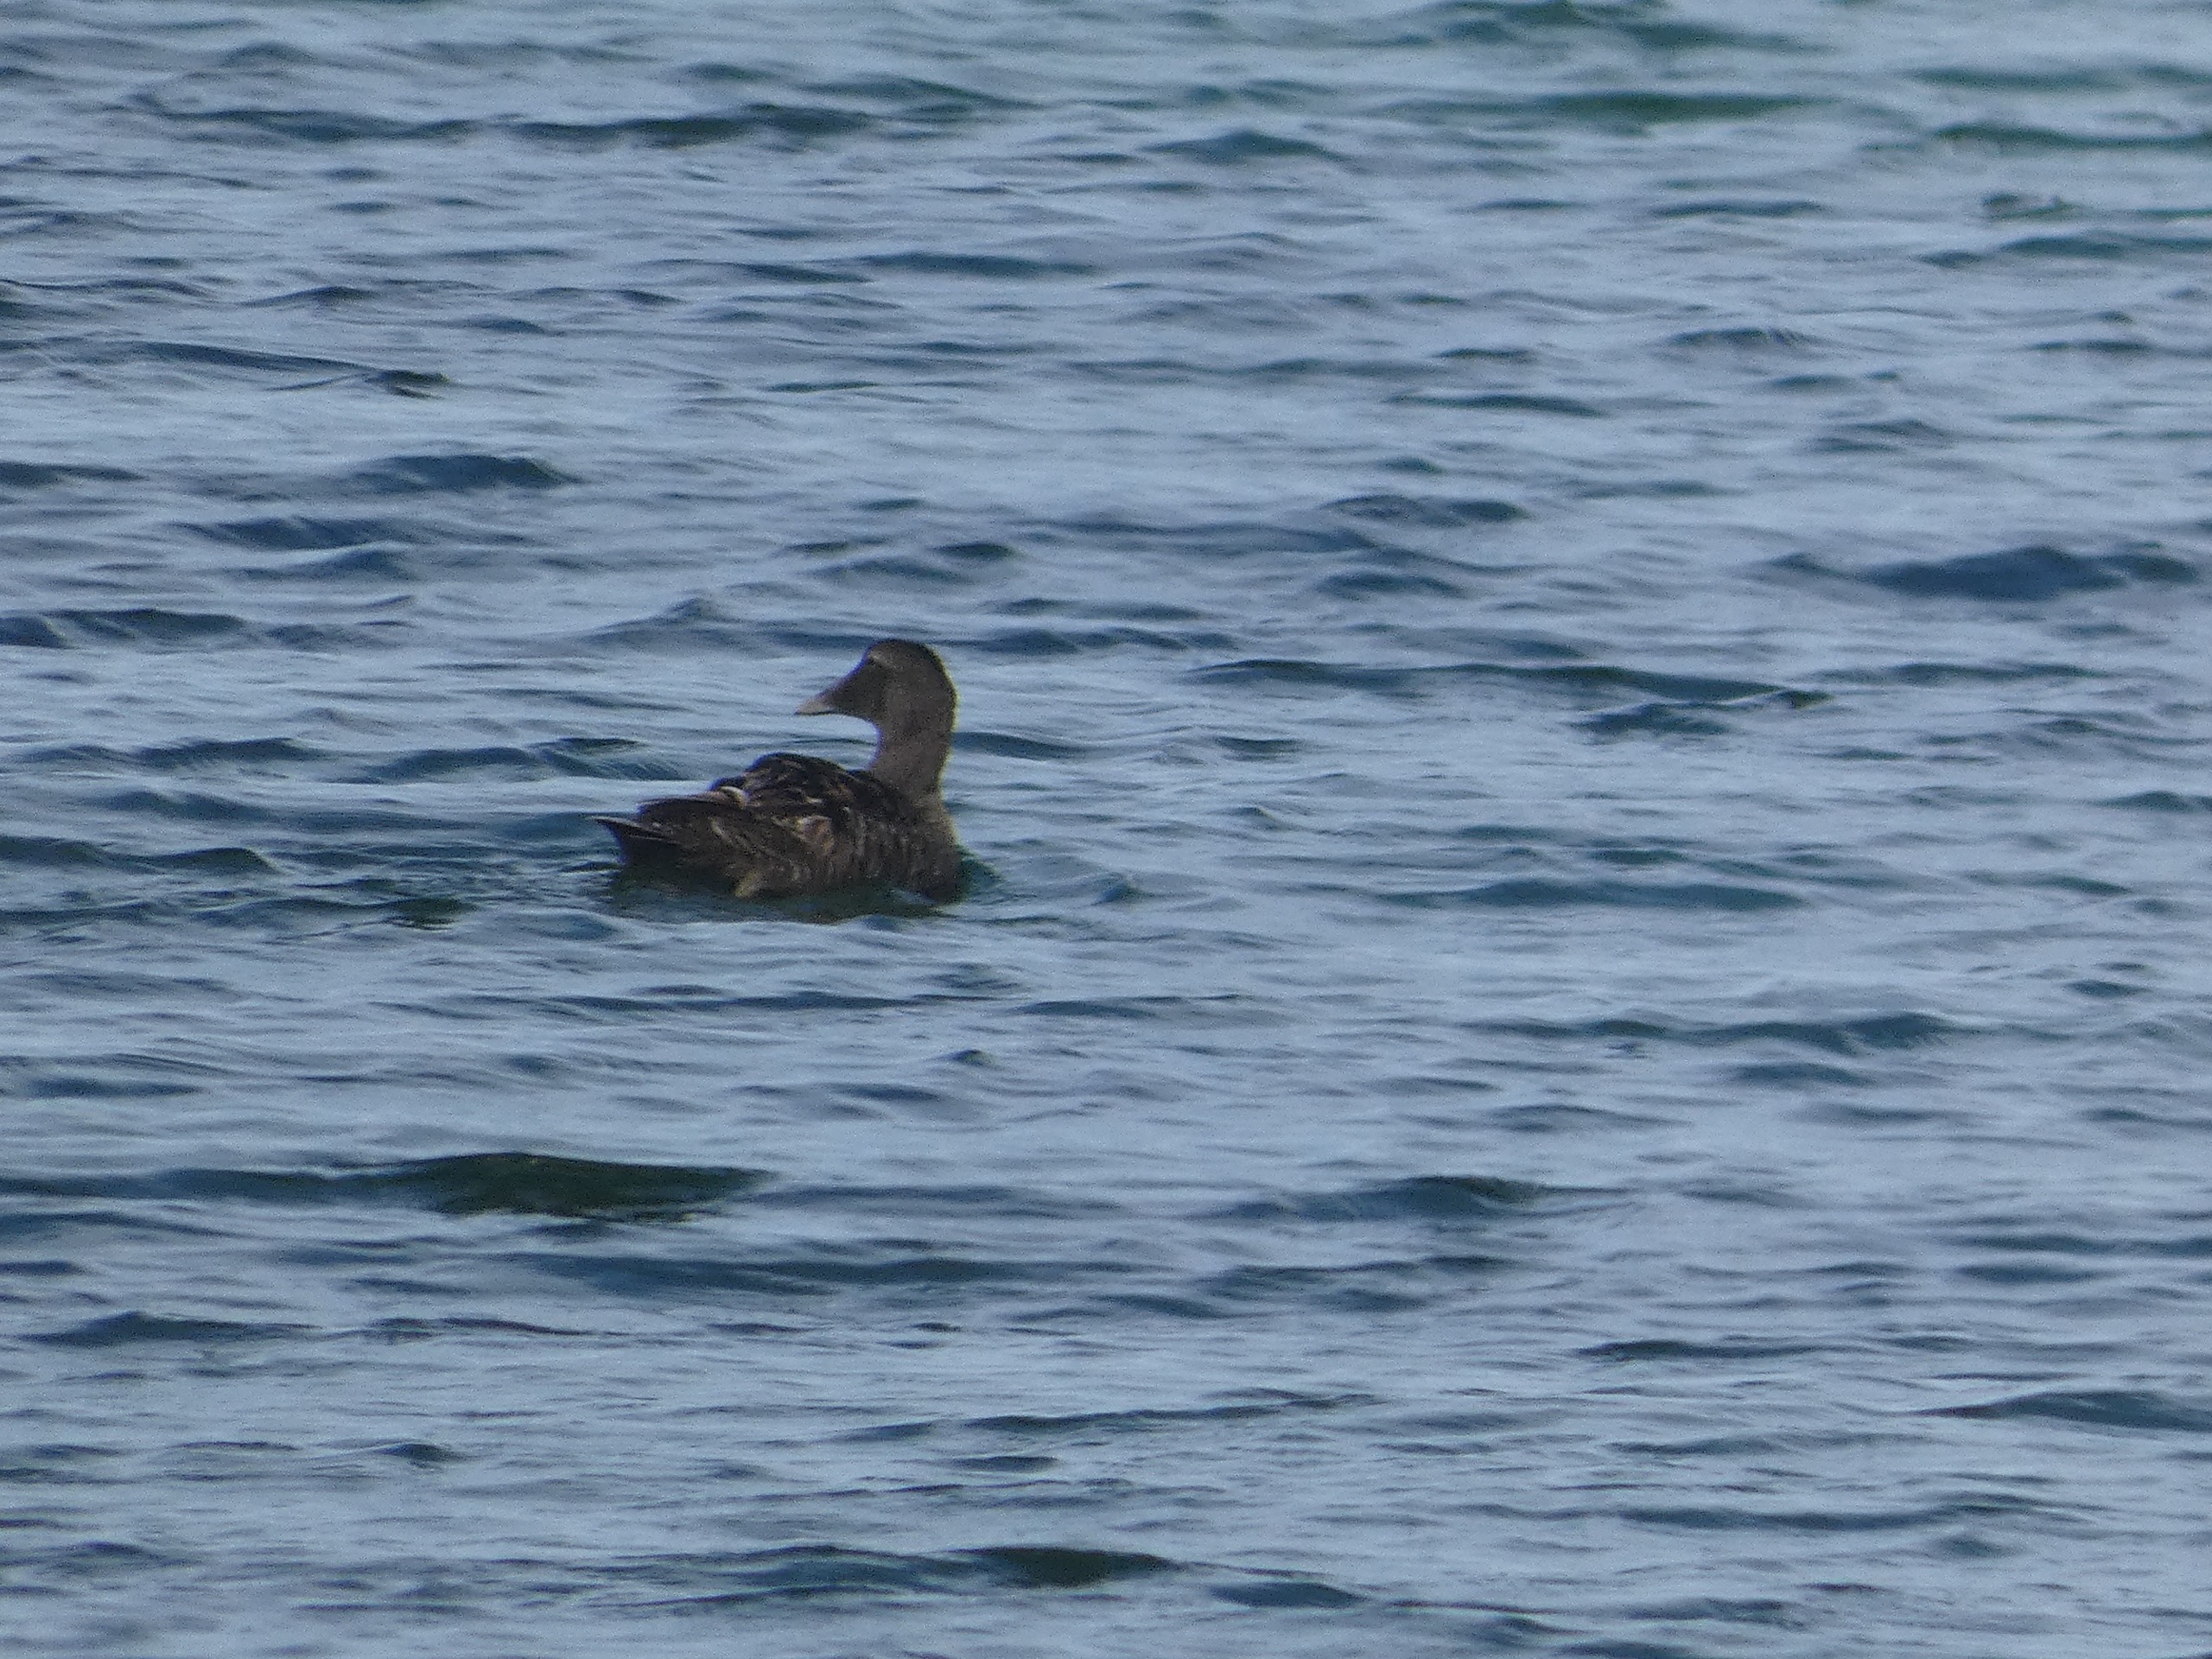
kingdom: Animalia
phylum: Chordata
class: Aves
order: Anseriformes
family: Anatidae
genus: Somateria
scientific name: Somateria mollissima
